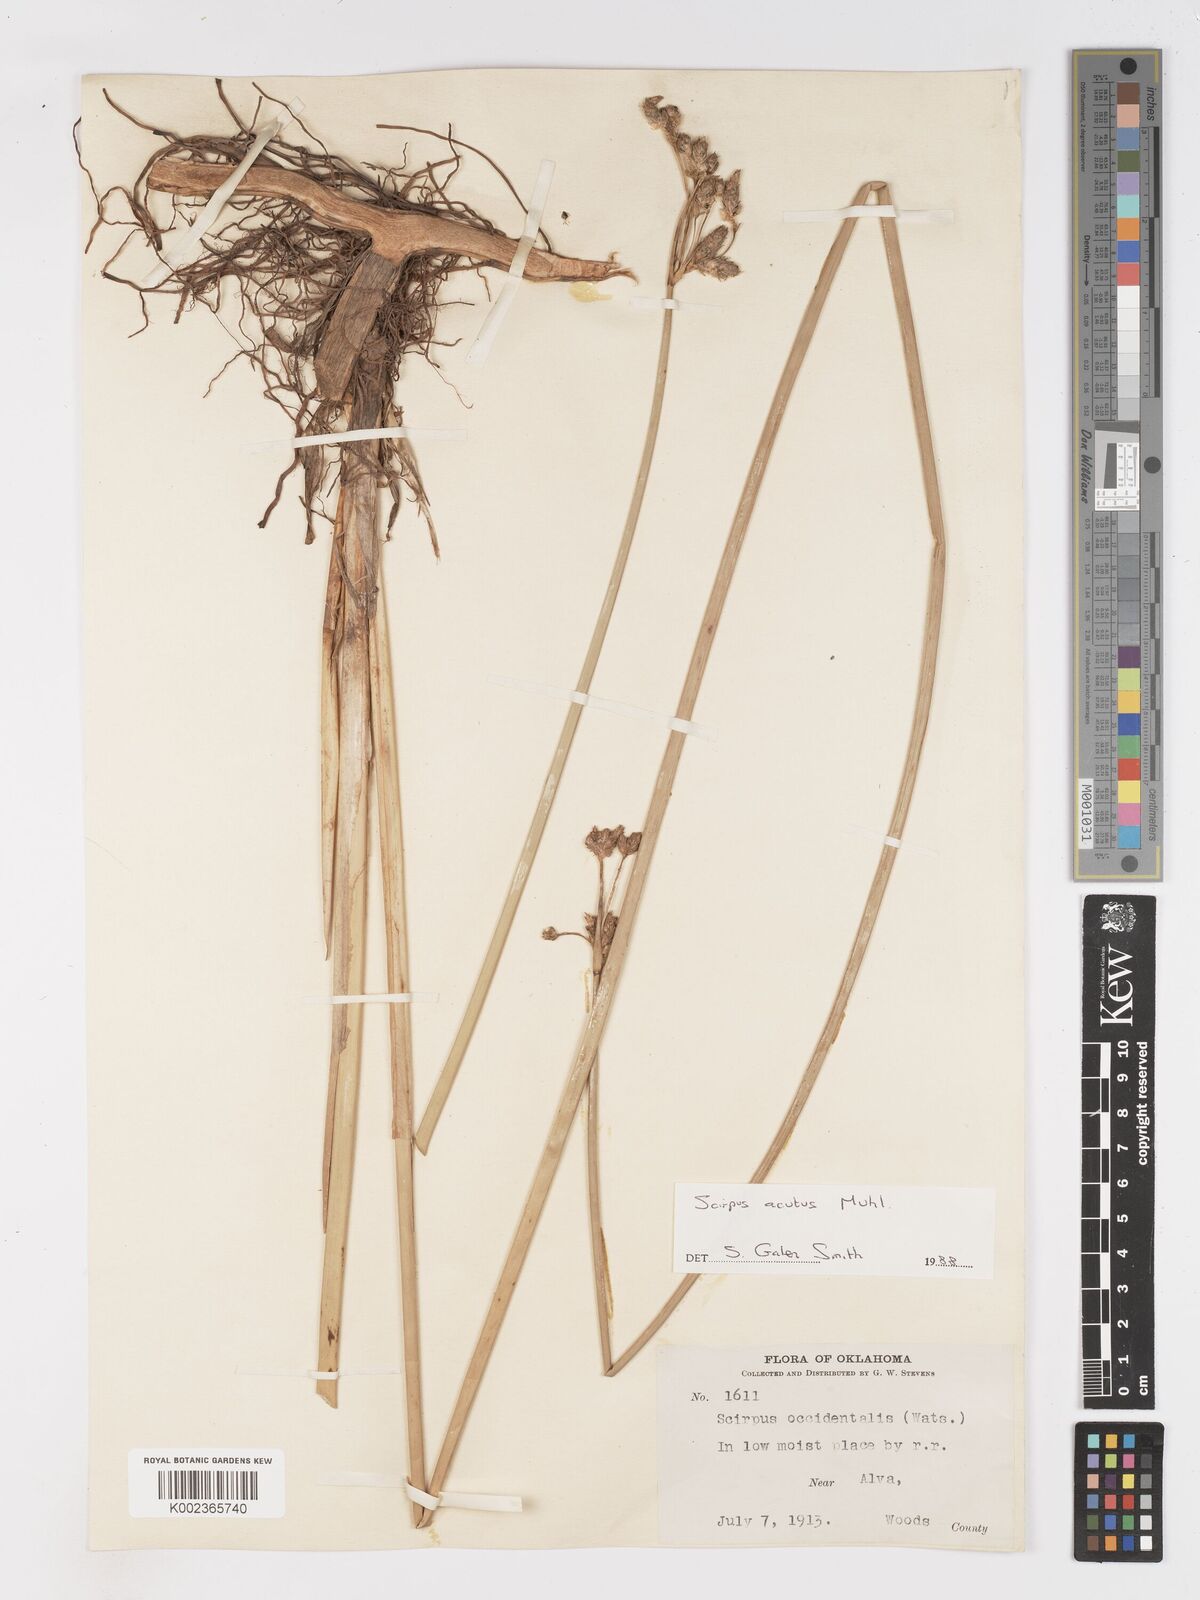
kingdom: Plantae
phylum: Tracheophyta
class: Liliopsida
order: Poales
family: Cyperaceae
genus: Schoenoplectus
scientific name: Schoenoplectus
